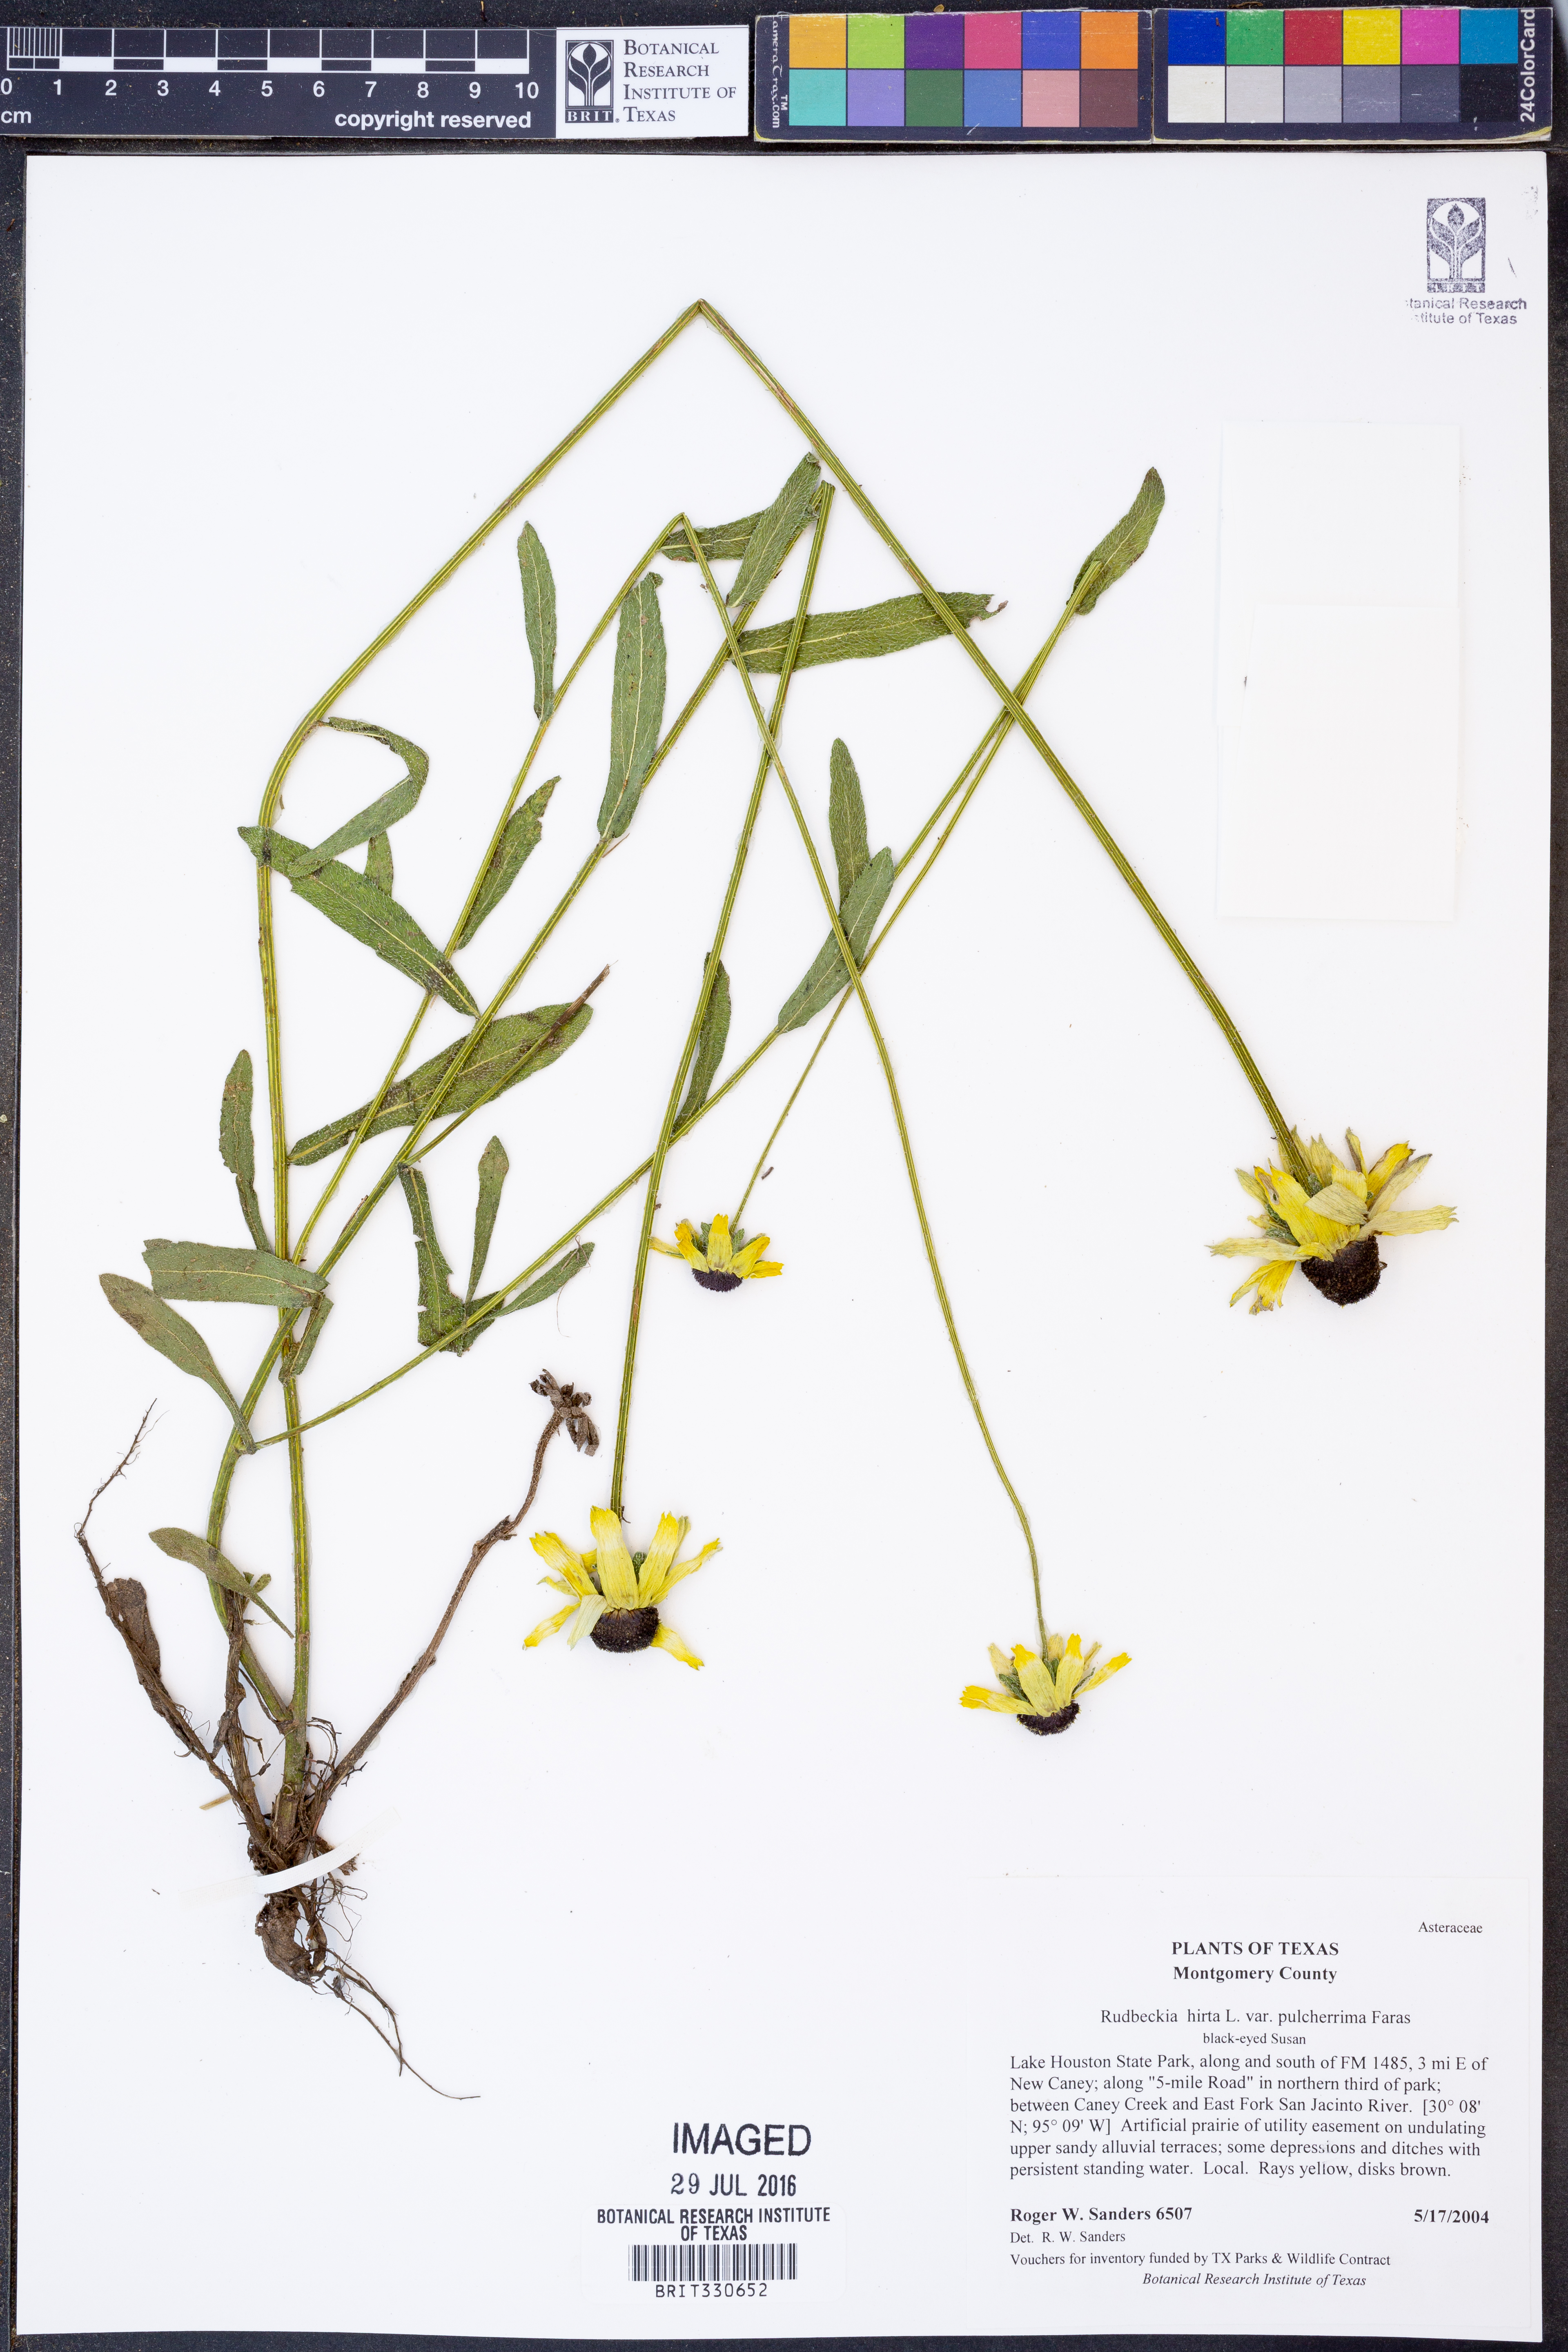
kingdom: Plantae
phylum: Tracheophyta
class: Magnoliopsida
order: Asterales
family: Asteraceae
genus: Rudbeckia
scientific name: Rudbeckia hirta
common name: Black-eyed-susan
